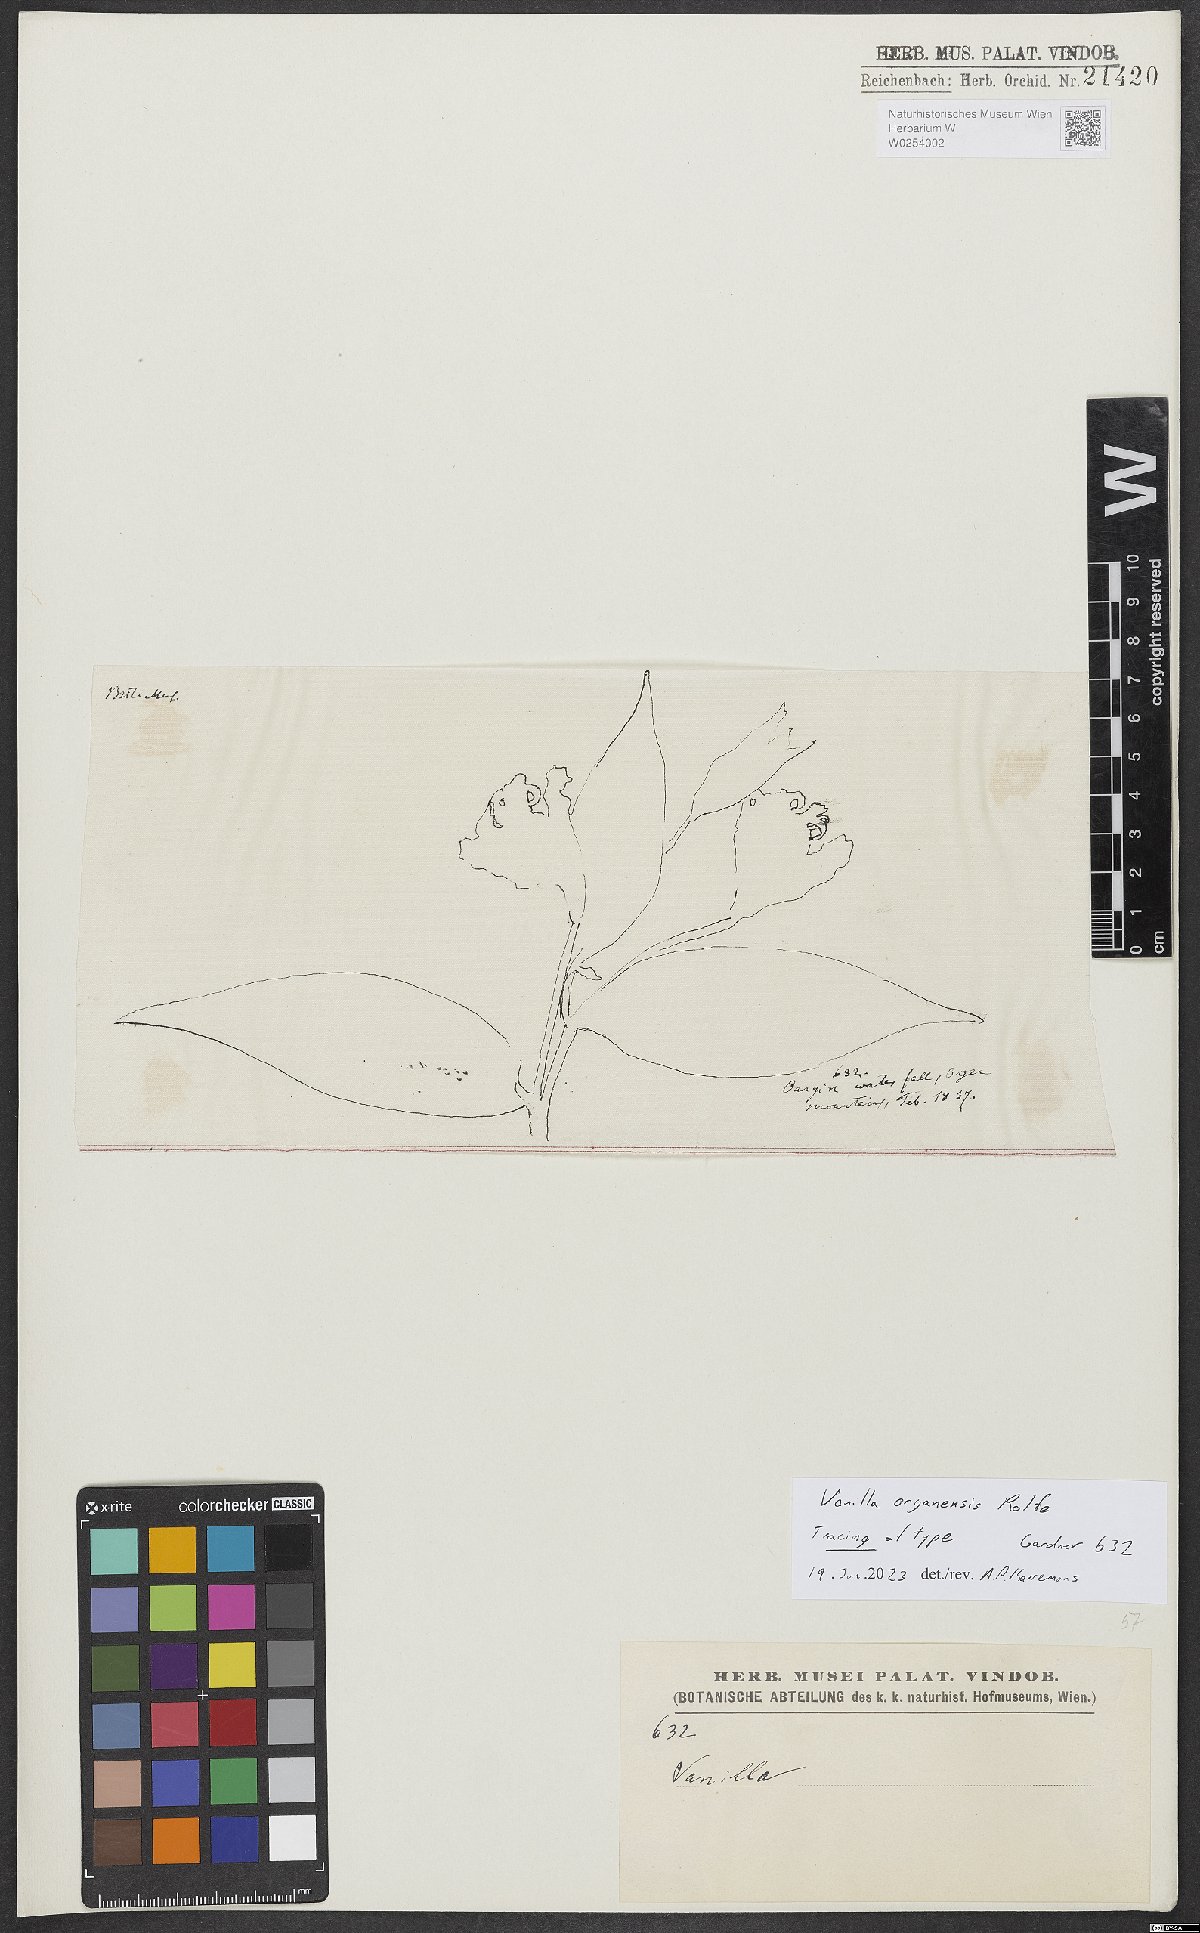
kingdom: Plantae
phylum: Tracheophyta
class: Liliopsida
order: Asparagales
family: Orchidaceae
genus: Vanilla
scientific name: Vanilla
